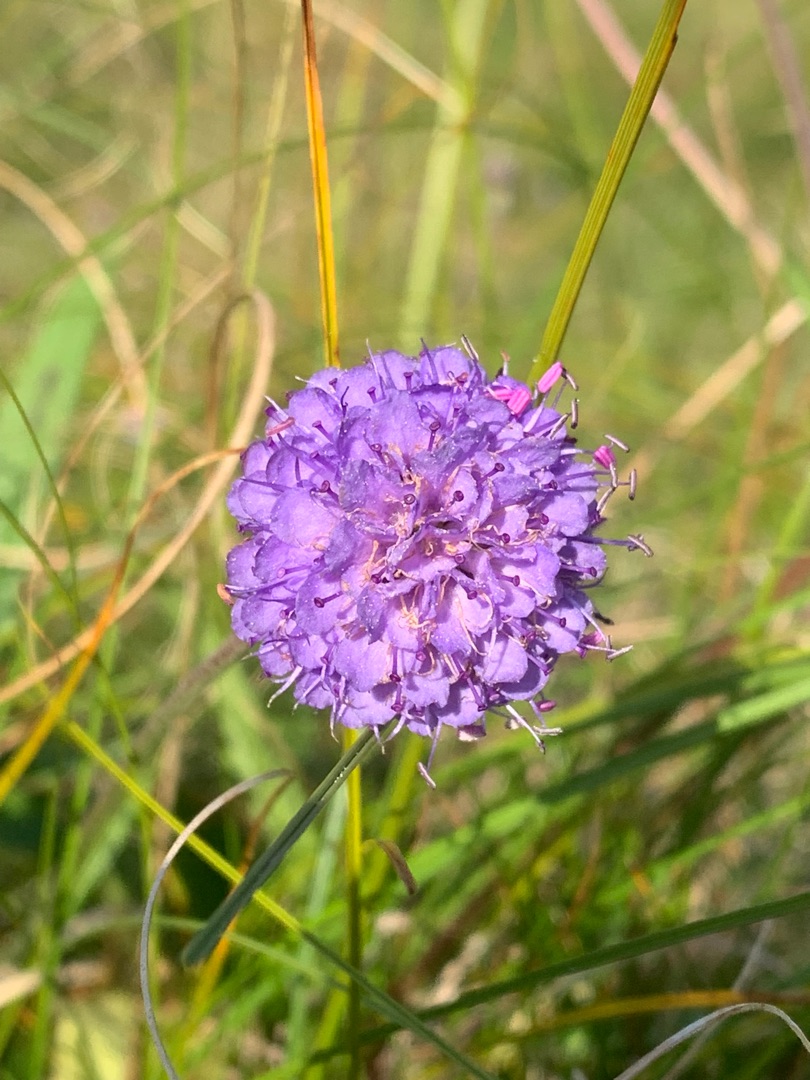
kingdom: Plantae
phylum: Tracheophyta
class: Magnoliopsida
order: Dipsacales
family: Caprifoliaceae
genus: Succisa
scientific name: Succisa pratensis
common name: Djævelsbid
